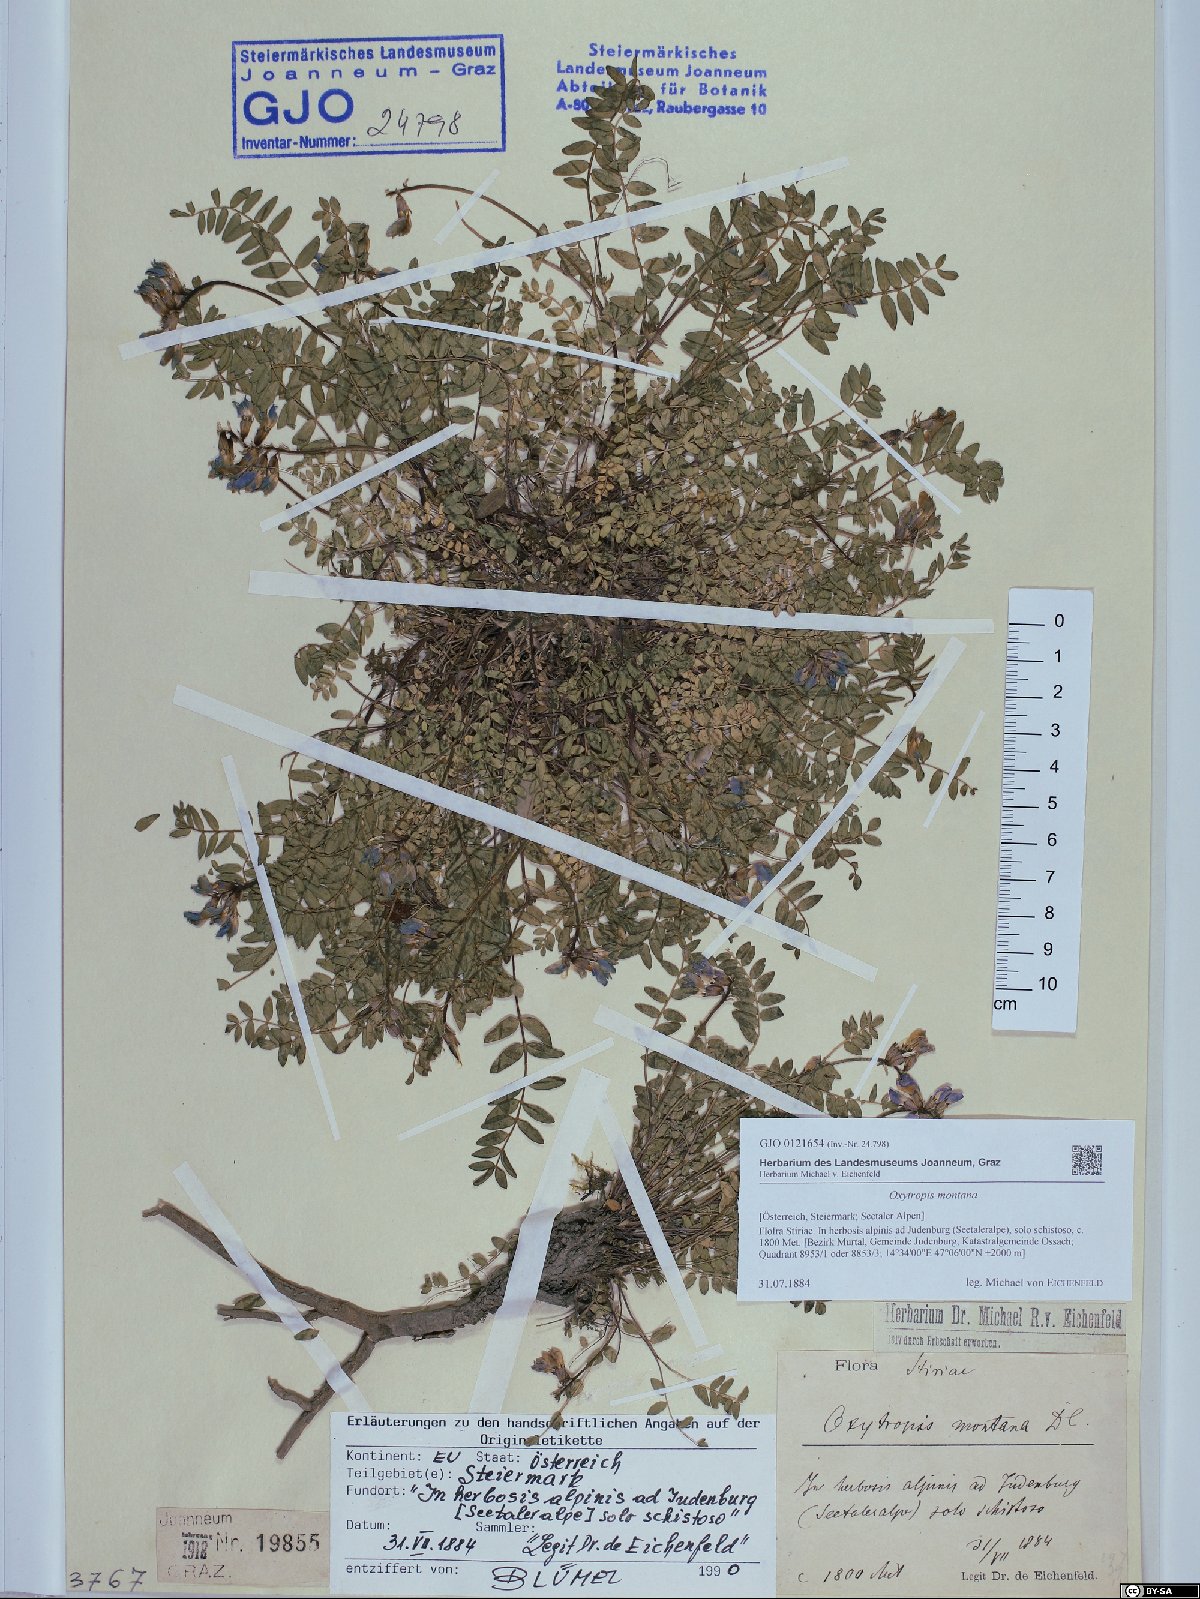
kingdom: Plantae
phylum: Tracheophyta
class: Magnoliopsida
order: Fabales
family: Fabaceae
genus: Oxytropis
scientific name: Oxytropis montana
